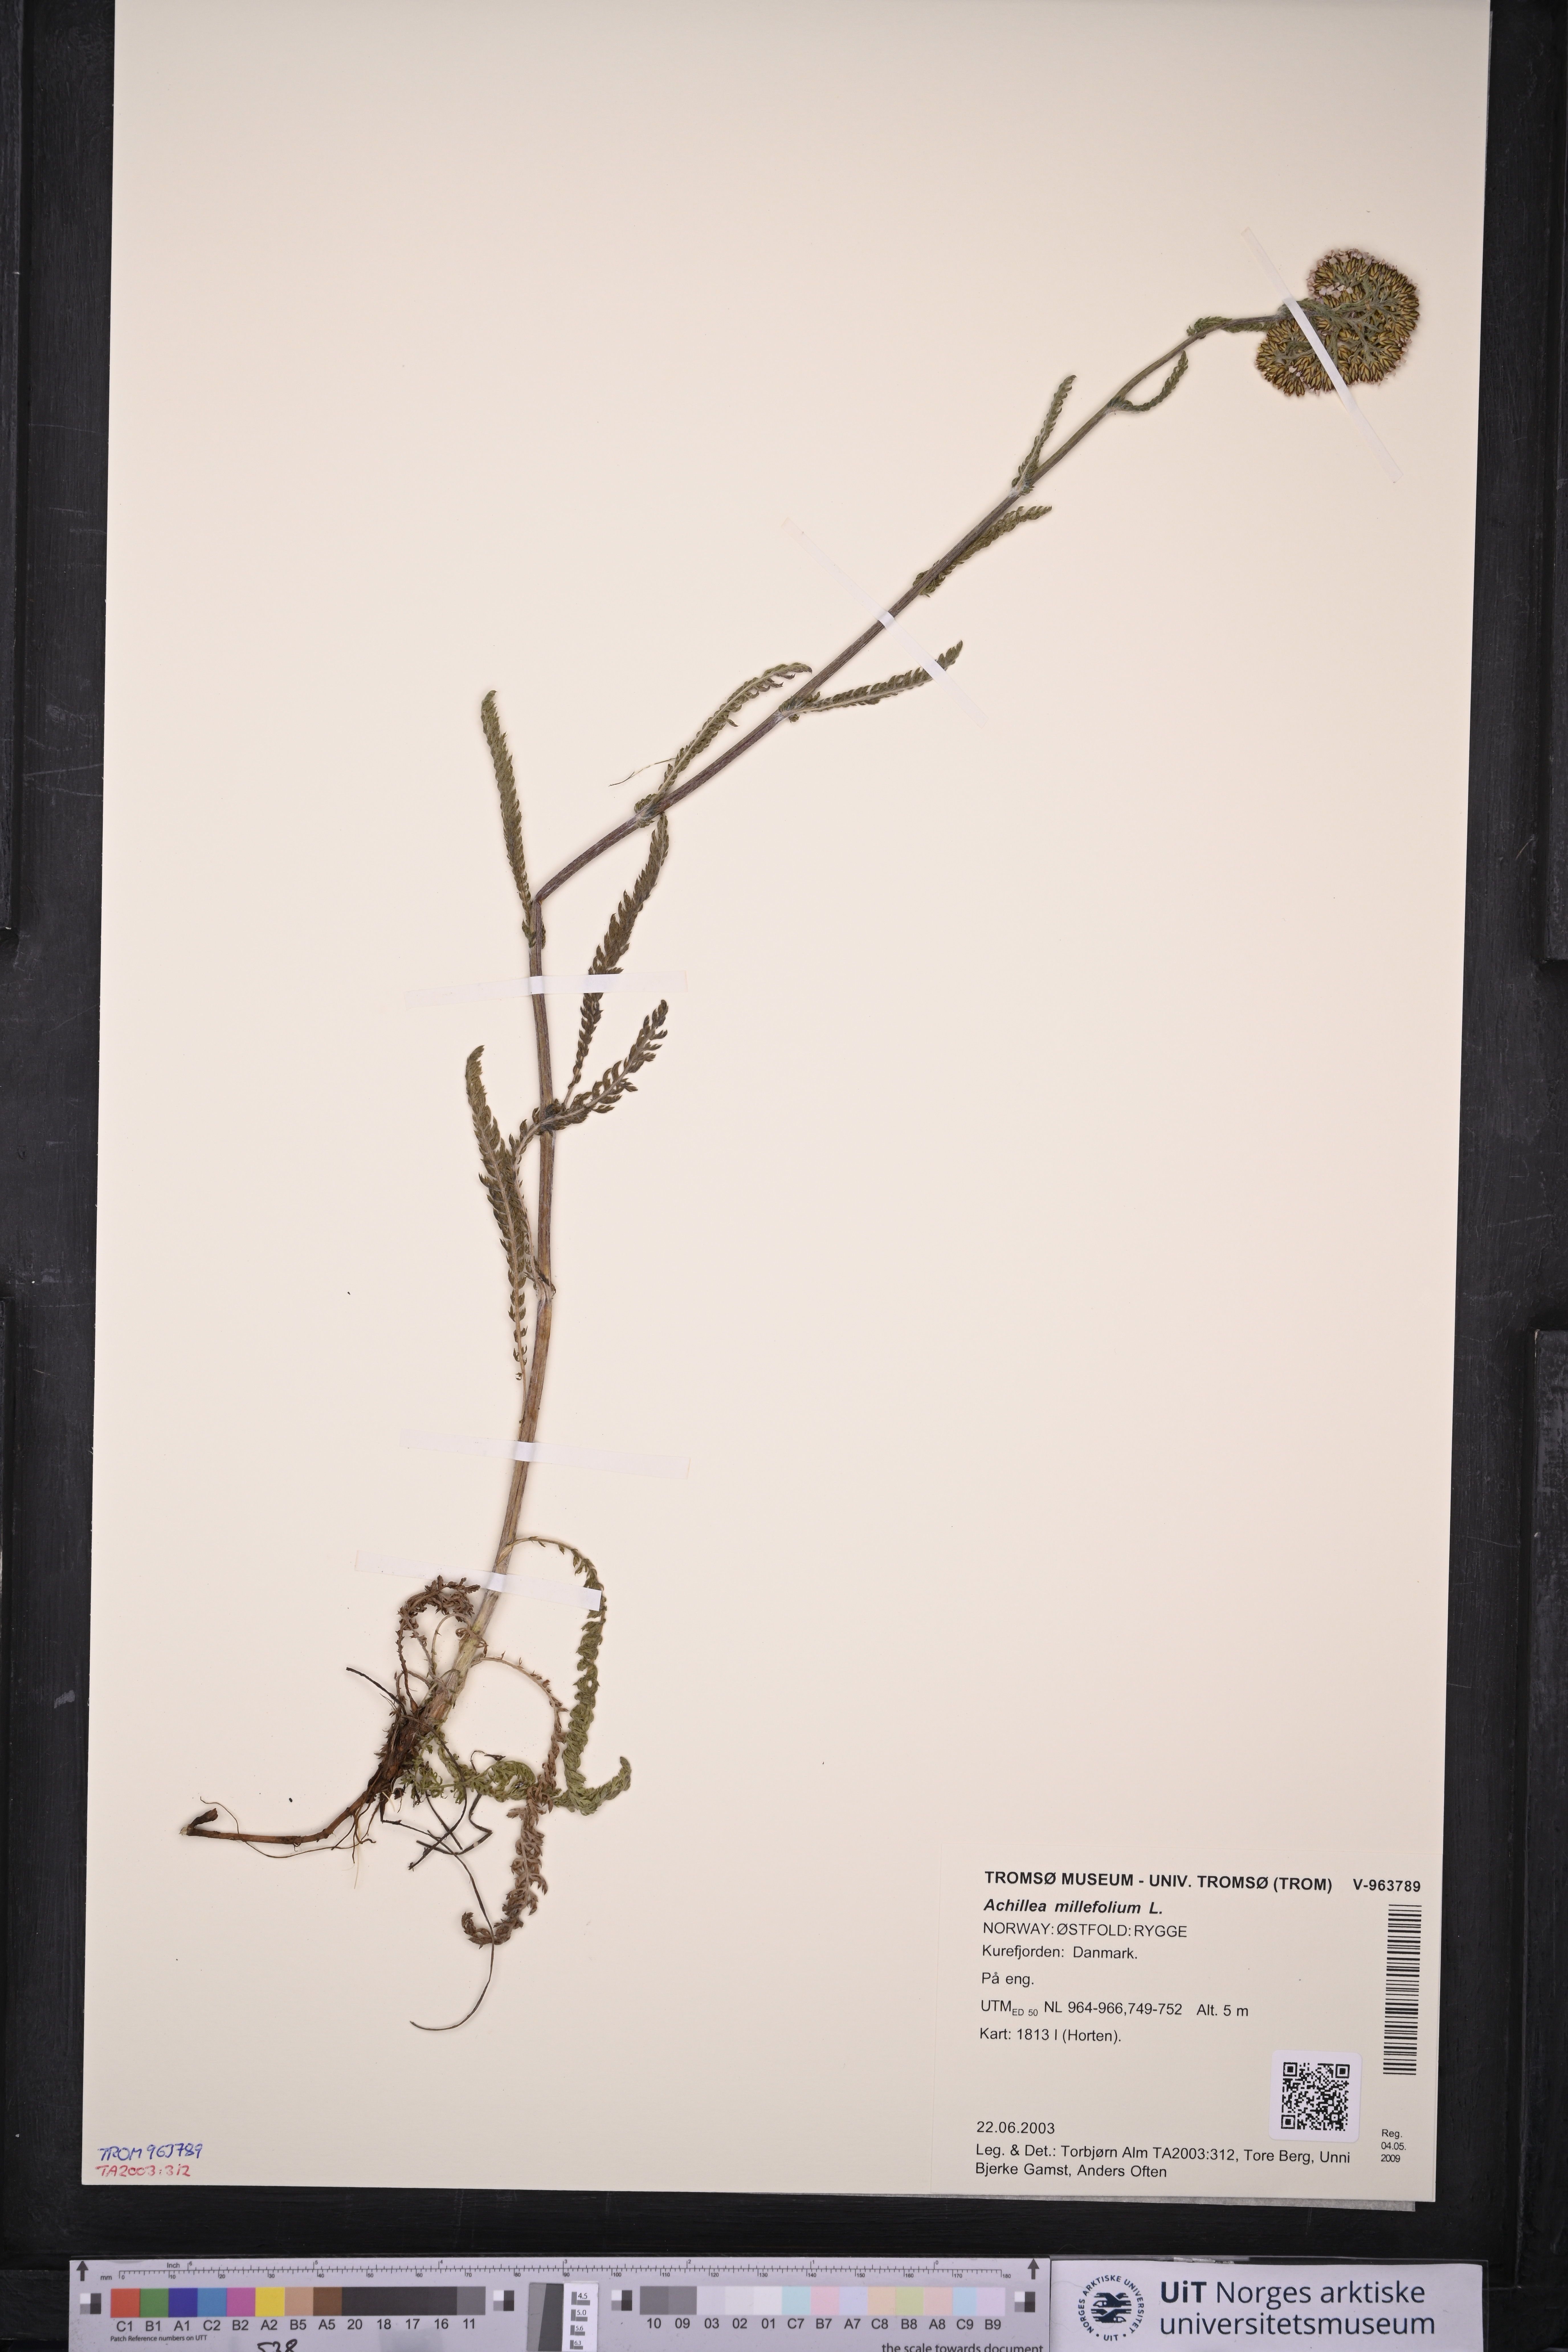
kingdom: Plantae
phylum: Tracheophyta
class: Magnoliopsida
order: Asterales
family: Asteraceae
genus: Achillea
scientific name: Achillea millefolium
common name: Yarrow
